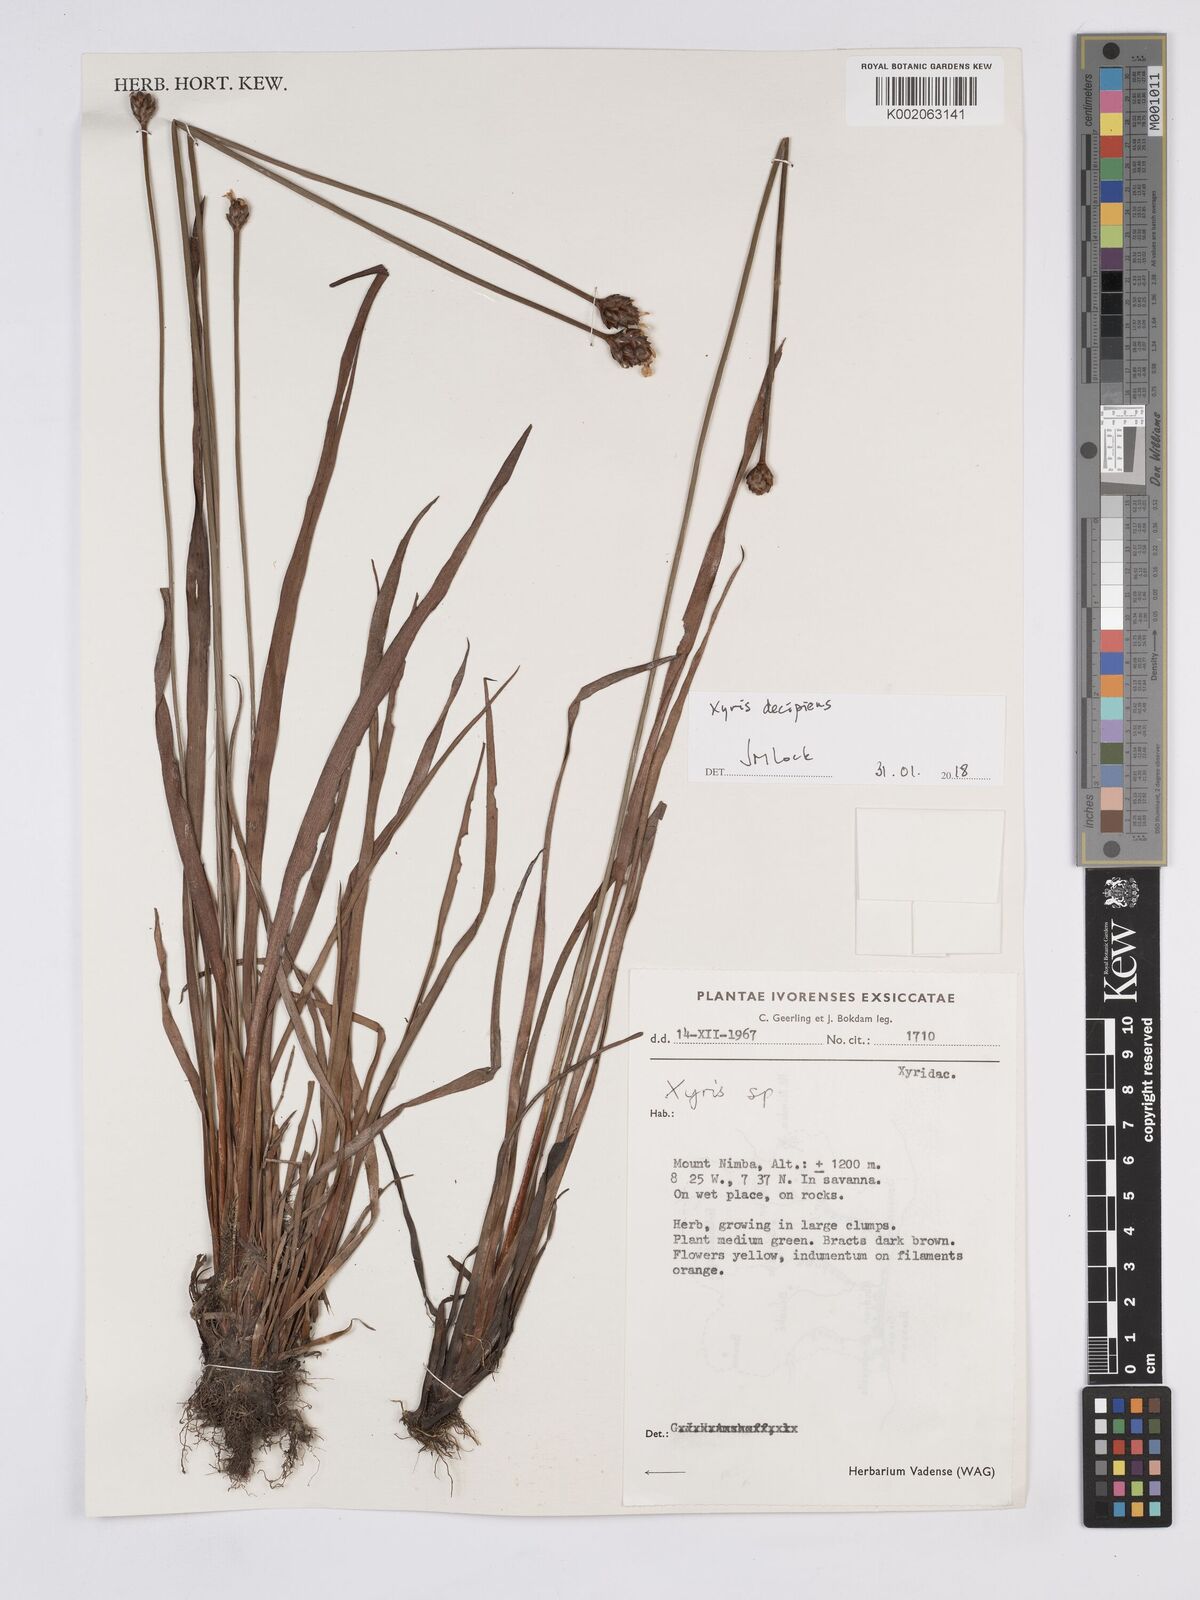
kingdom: Plantae
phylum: Tracheophyta
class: Liliopsida
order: Poales
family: Xyridaceae
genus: Xyris
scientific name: Xyris decipiens
